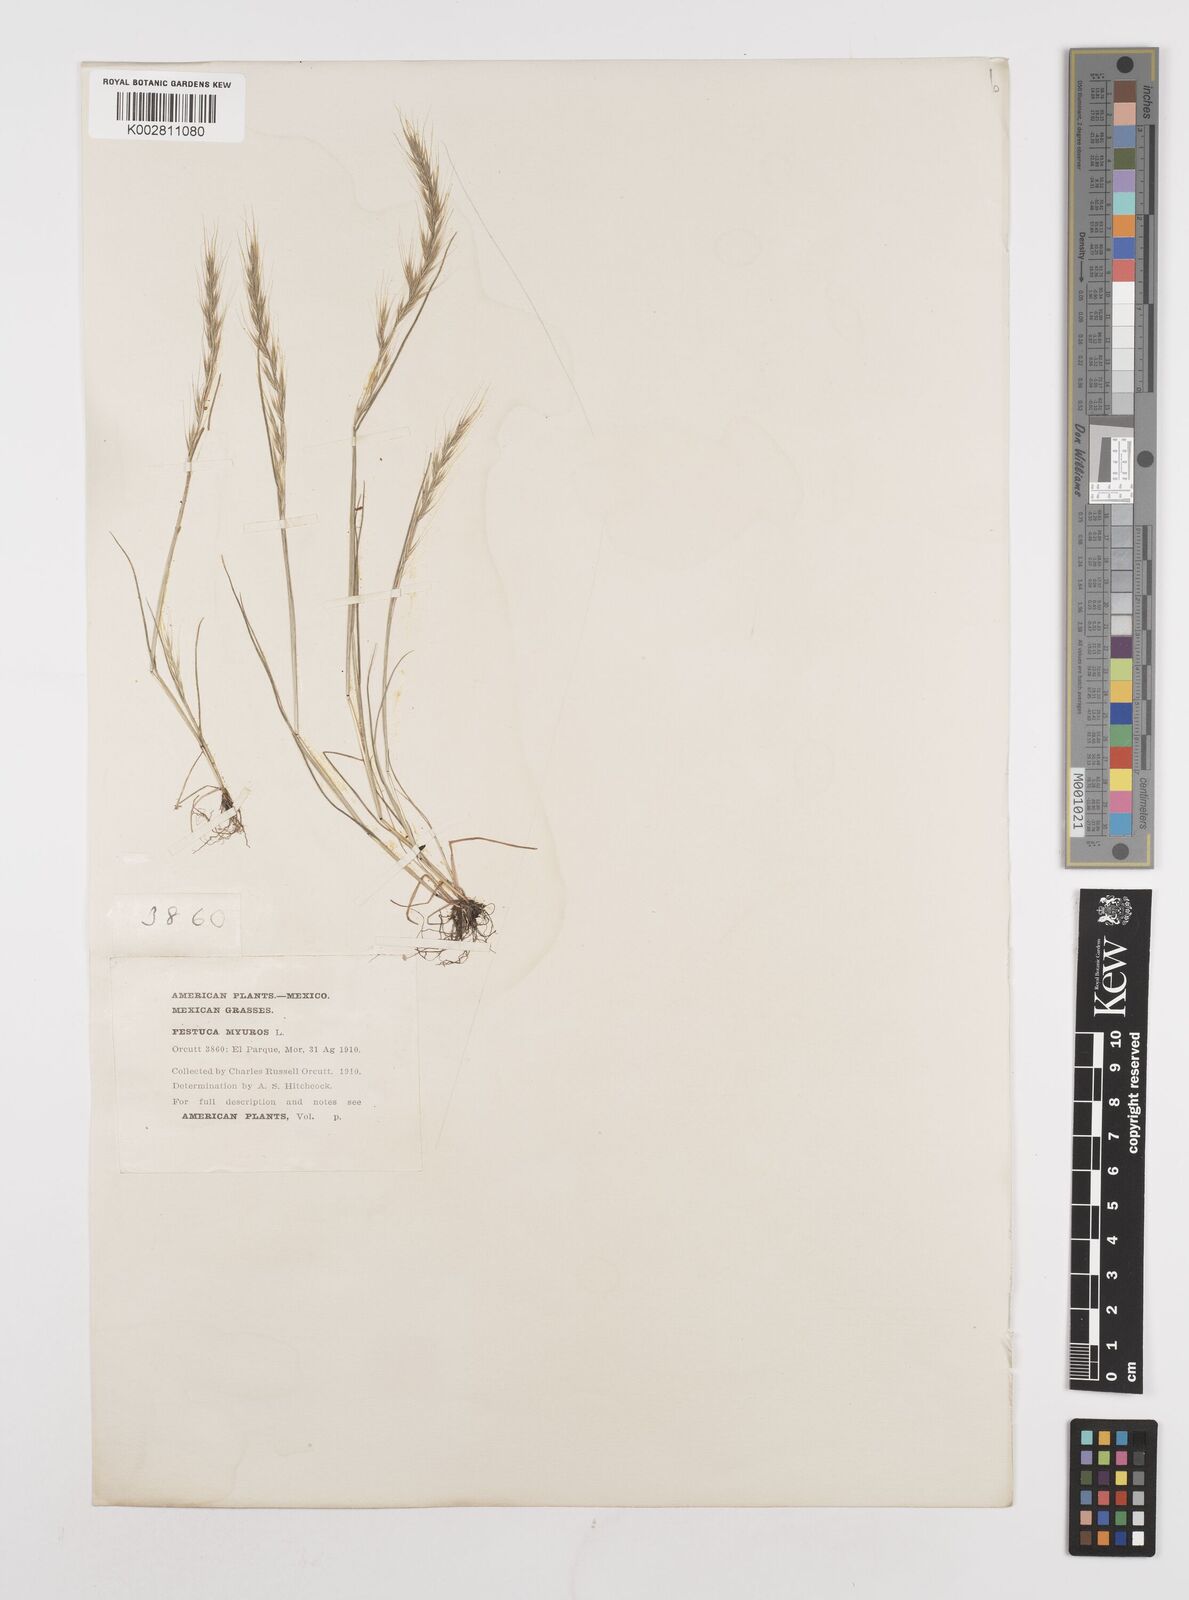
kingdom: Plantae
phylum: Tracheophyta
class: Liliopsida
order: Poales
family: Poaceae
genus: Festuca
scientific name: Festuca myuros
